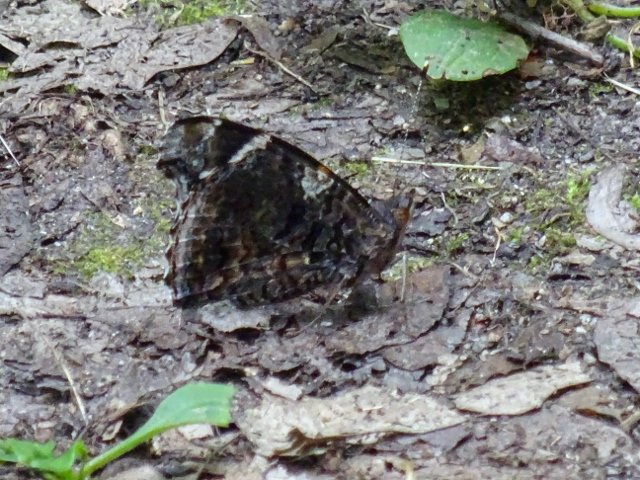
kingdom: Animalia
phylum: Arthropoda
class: Insecta
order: Lepidoptera
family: Nymphalidae
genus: Vanessa
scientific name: Vanessa atalanta
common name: Red Admiral
